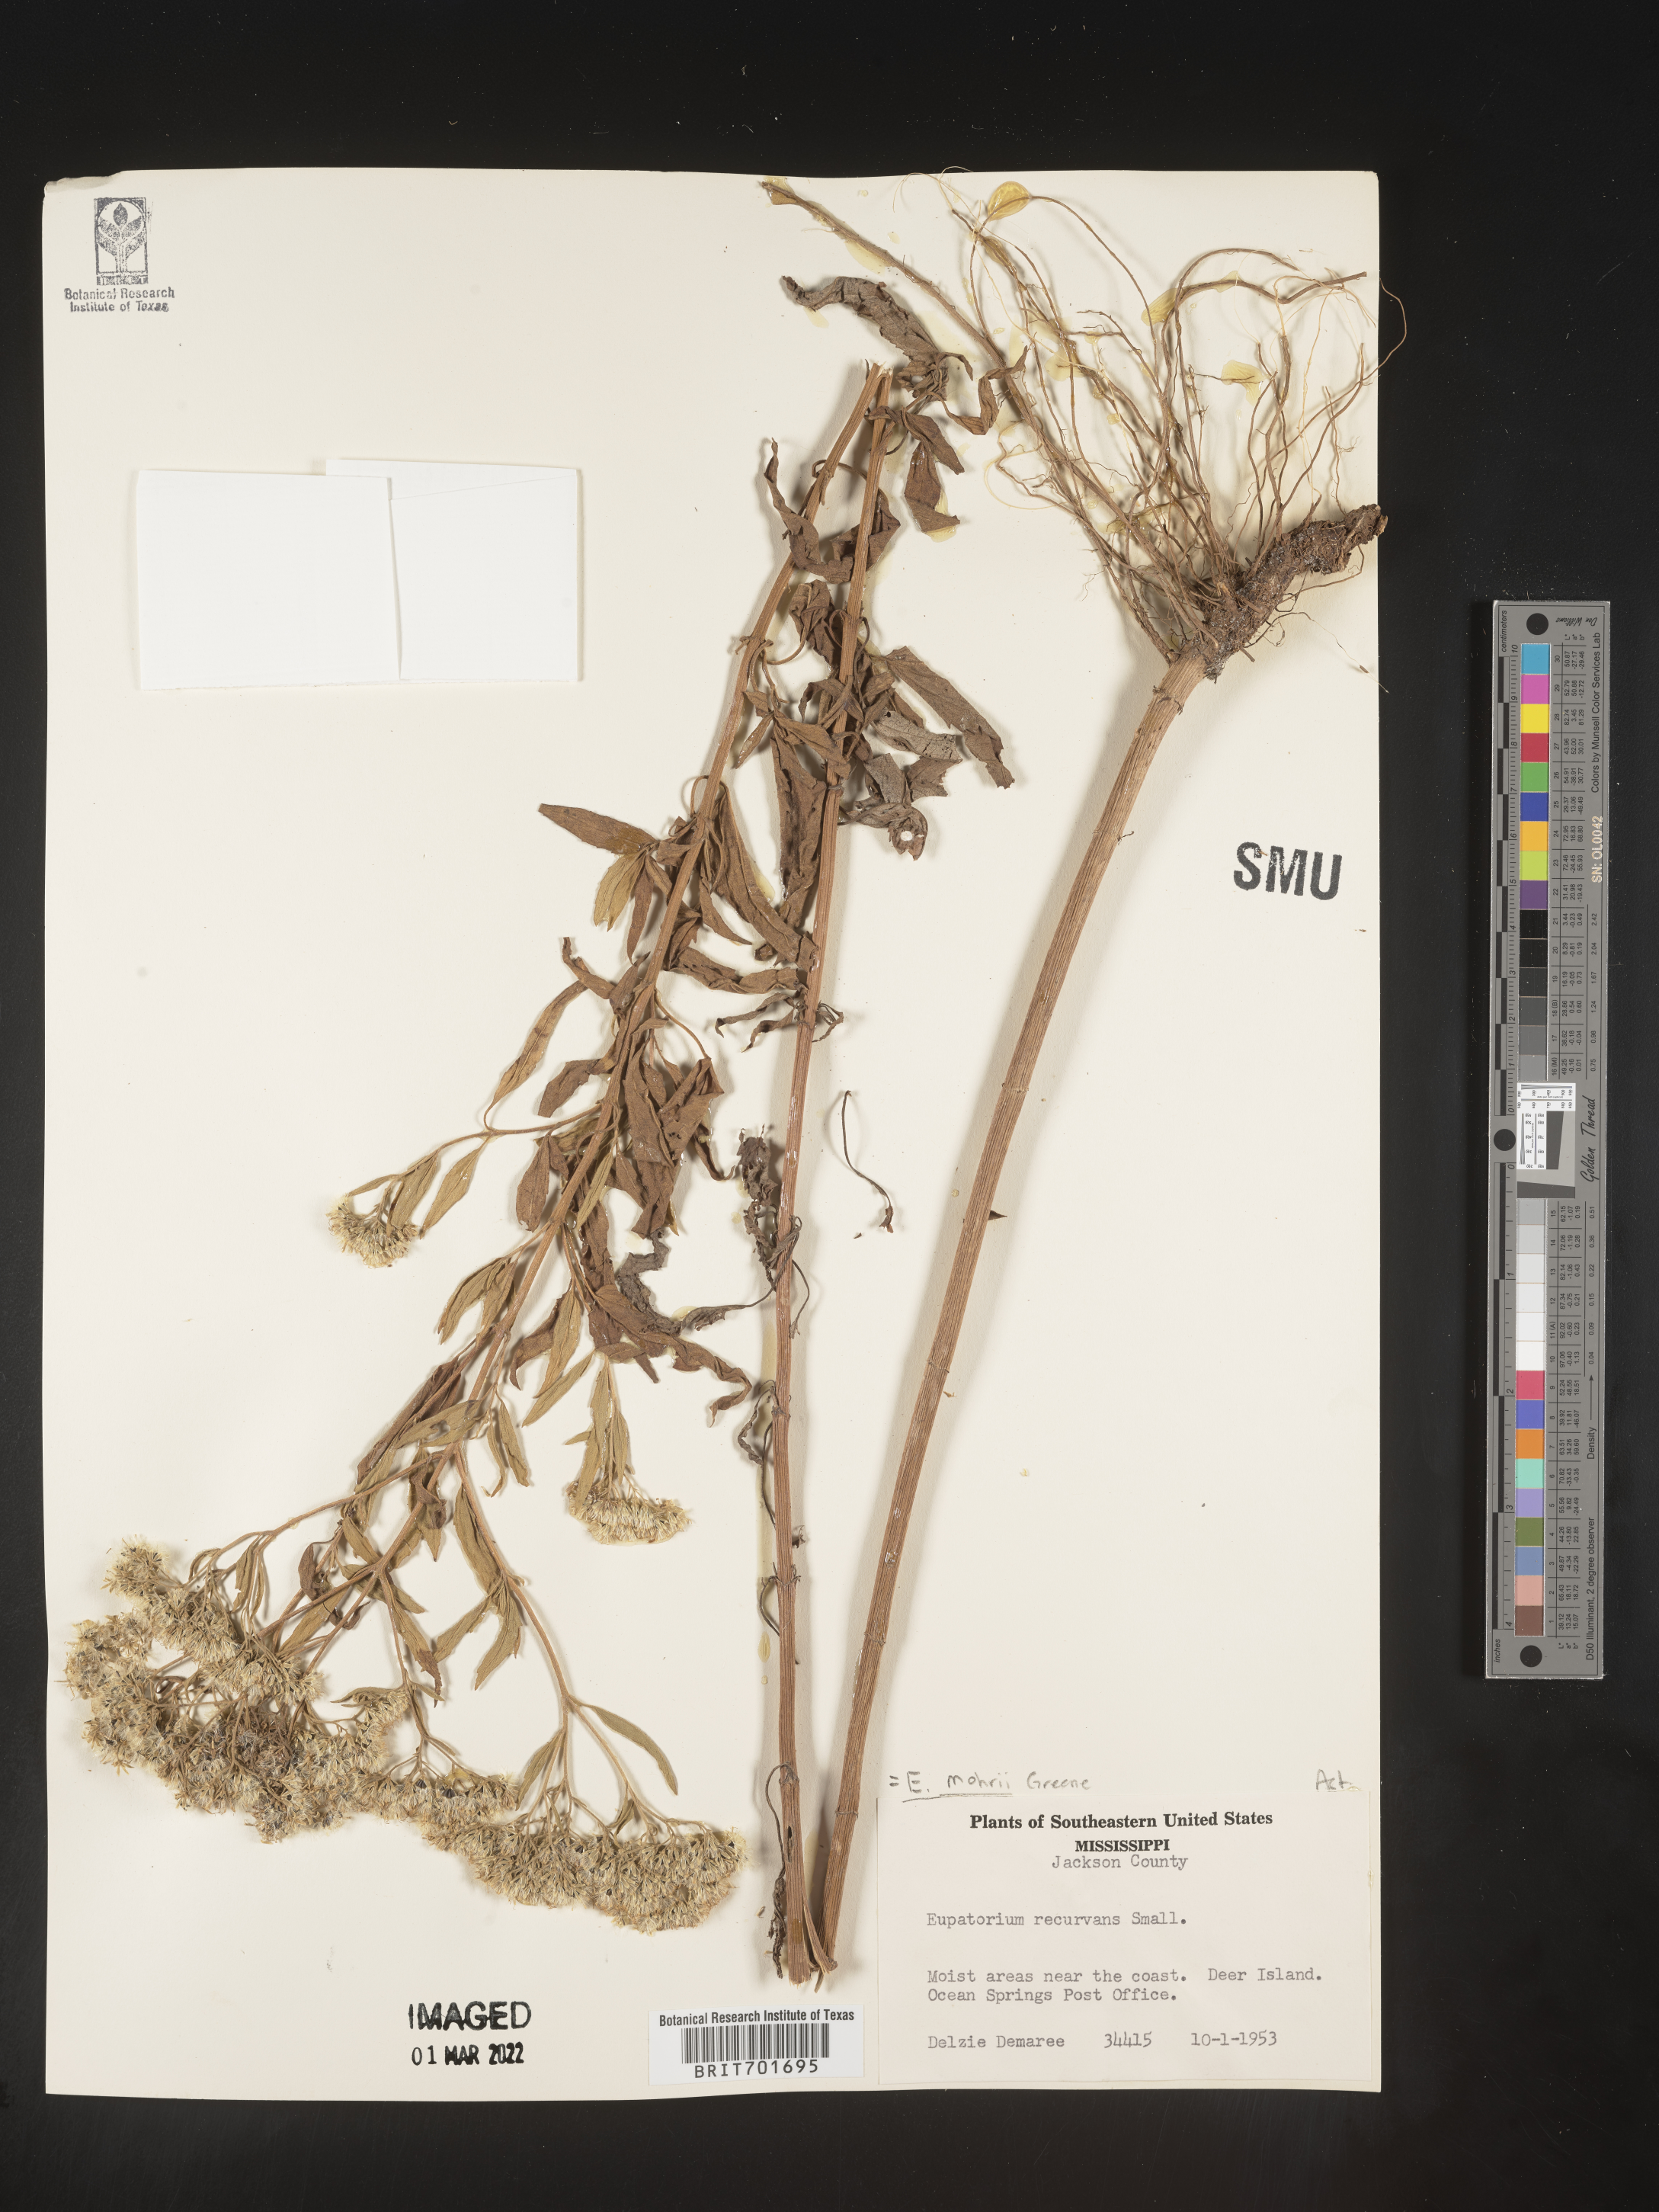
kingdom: Plantae
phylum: Tracheophyta
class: Magnoliopsida
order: Asterales
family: Asteraceae
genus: Eupatorium
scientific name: Eupatorium mohrii
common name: Mohr's thoroughwort
